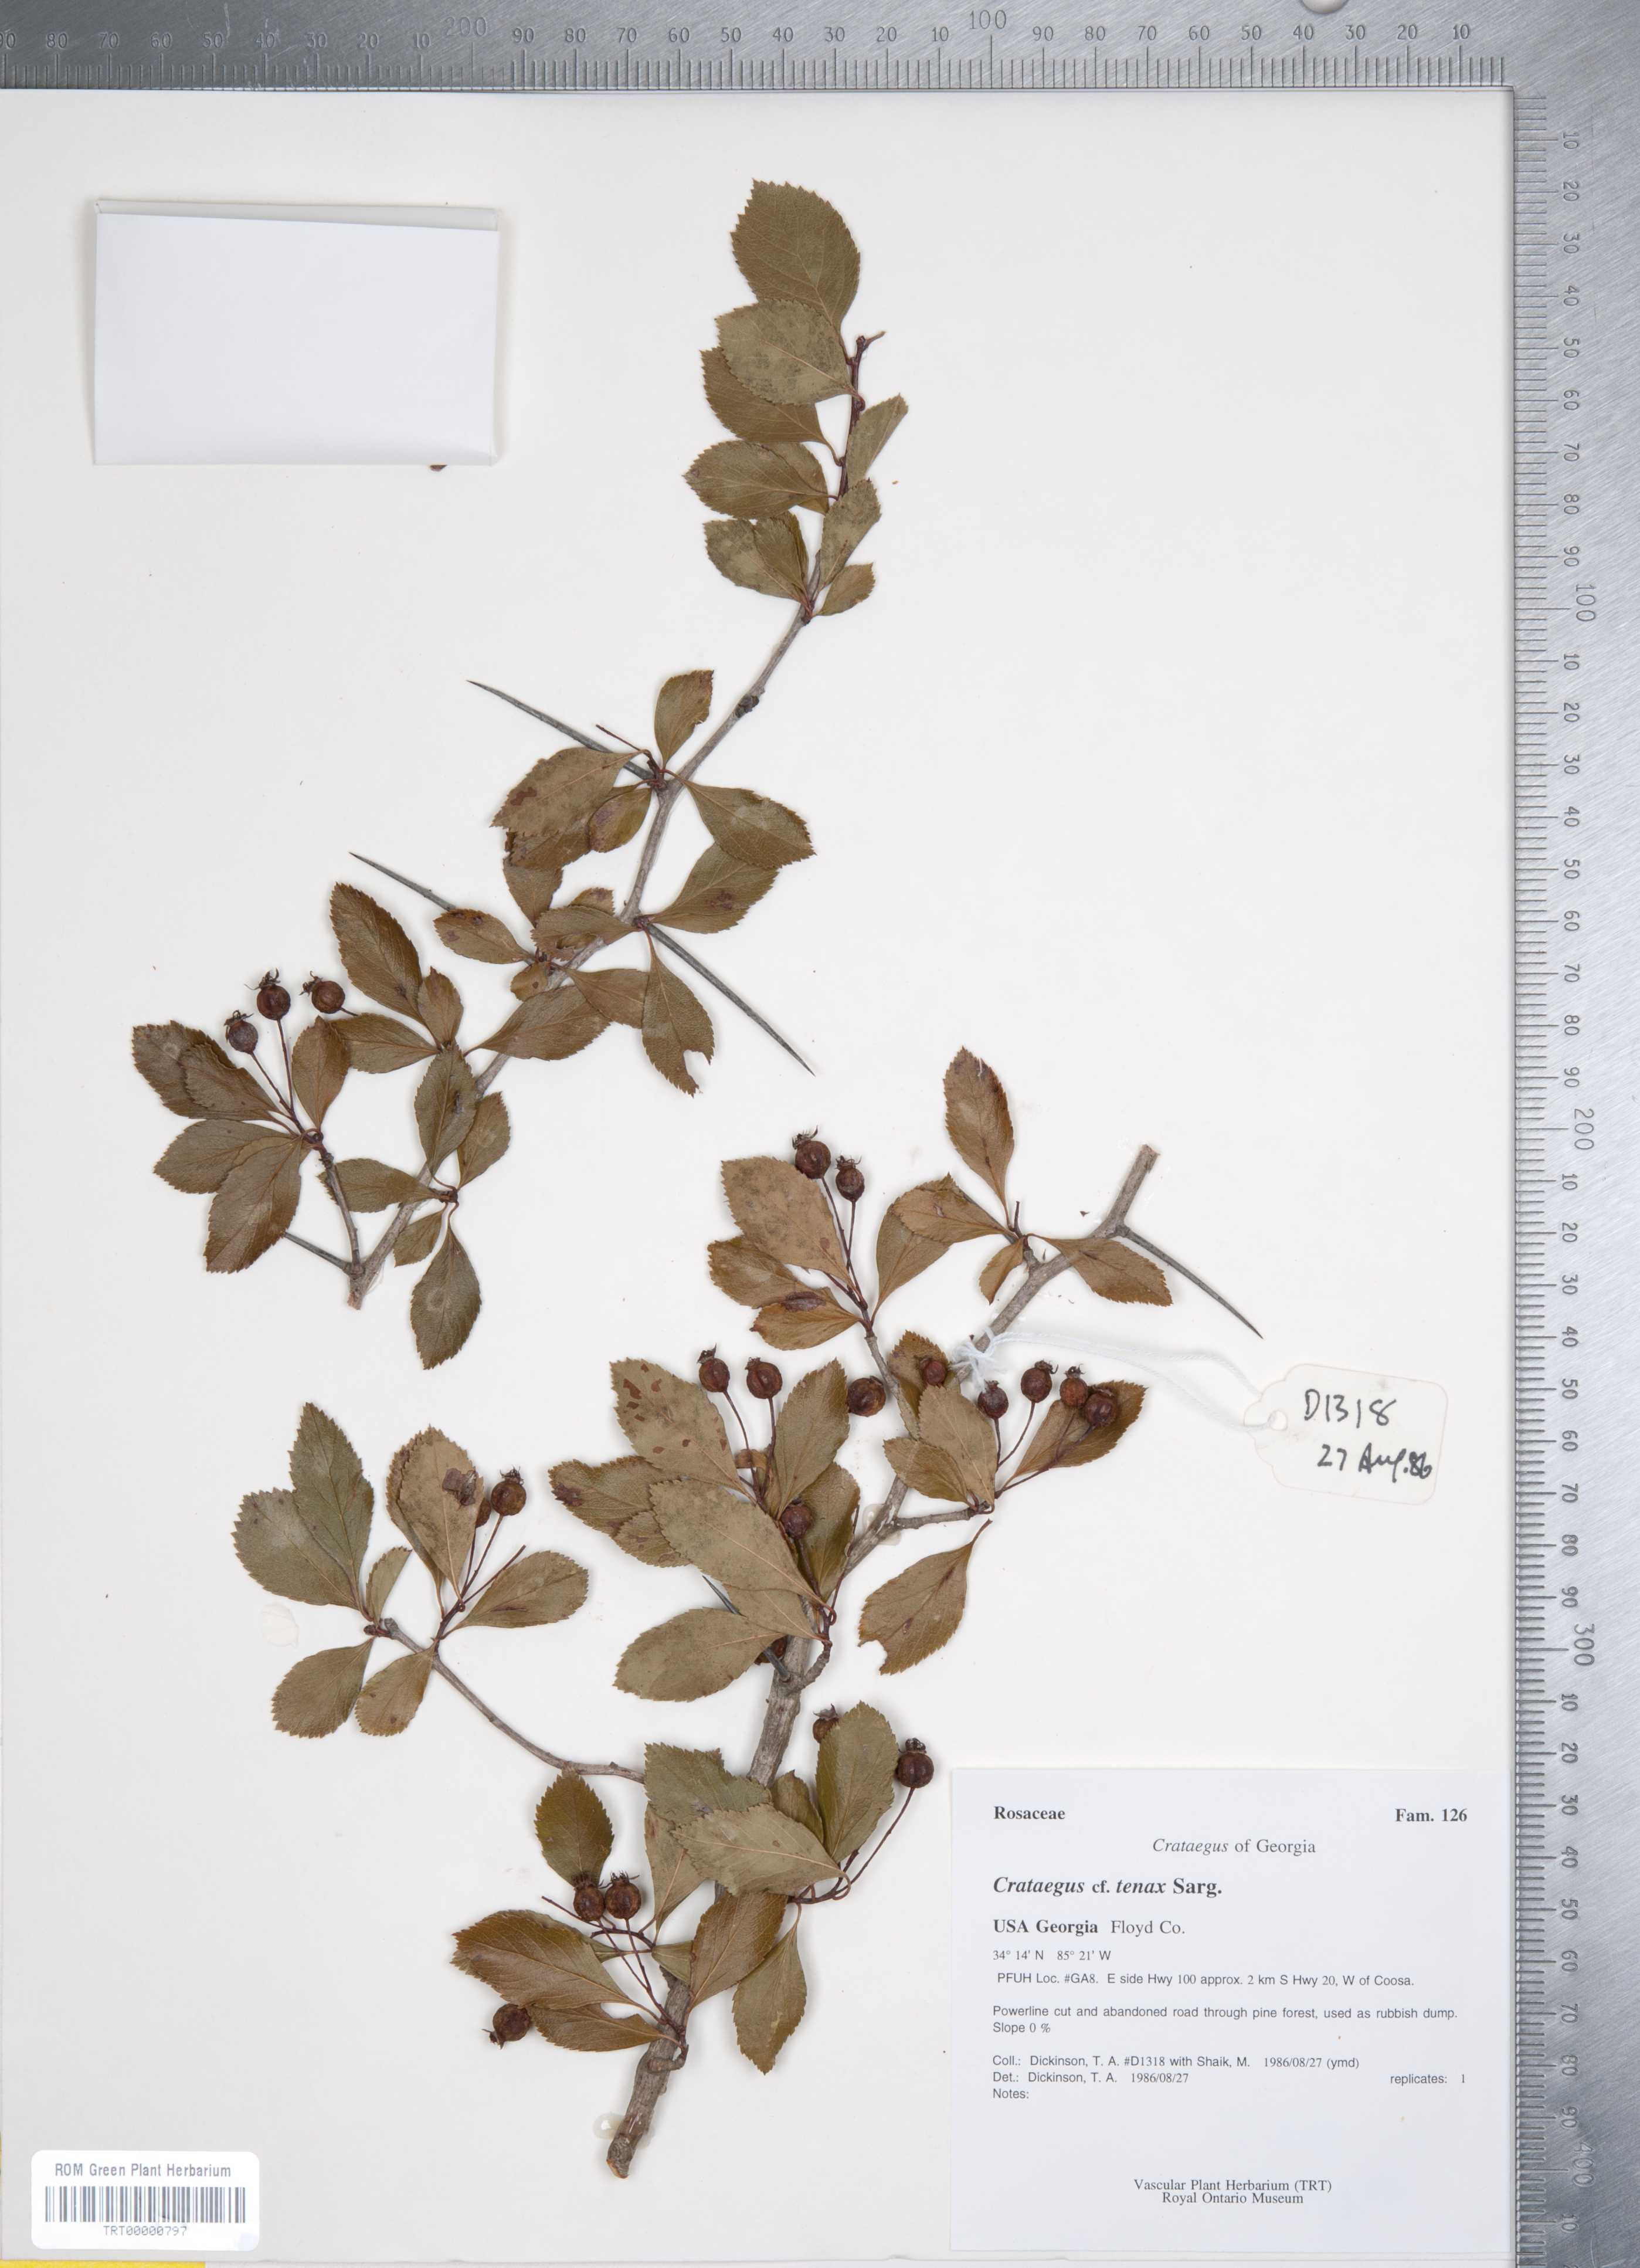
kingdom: Plantae
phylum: Tracheophyta
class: Magnoliopsida
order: Rosales
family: Rosaceae
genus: Crataegus
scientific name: Crataegus crus-galli
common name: Cockspurthorn
